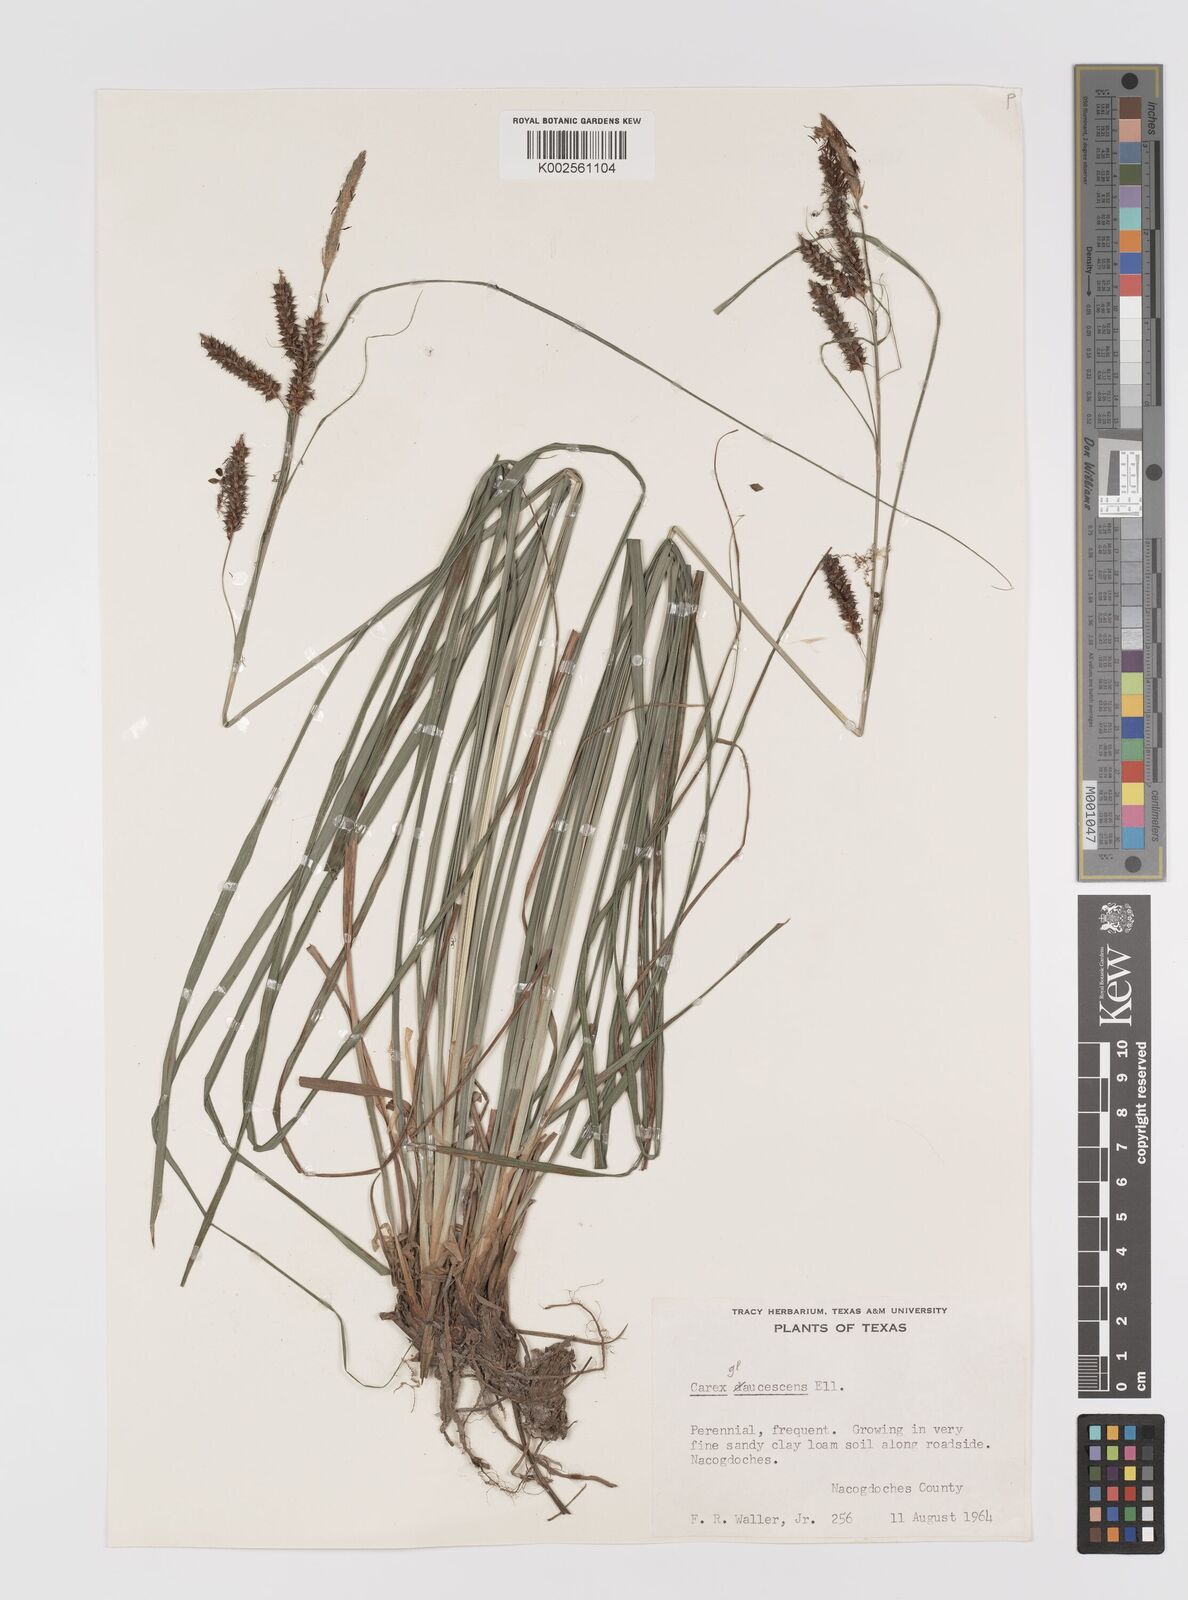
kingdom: Plantae
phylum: Tracheophyta
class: Liliopsida
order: Poales
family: Cyperaceae
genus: Carex
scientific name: Carex glaucescens
